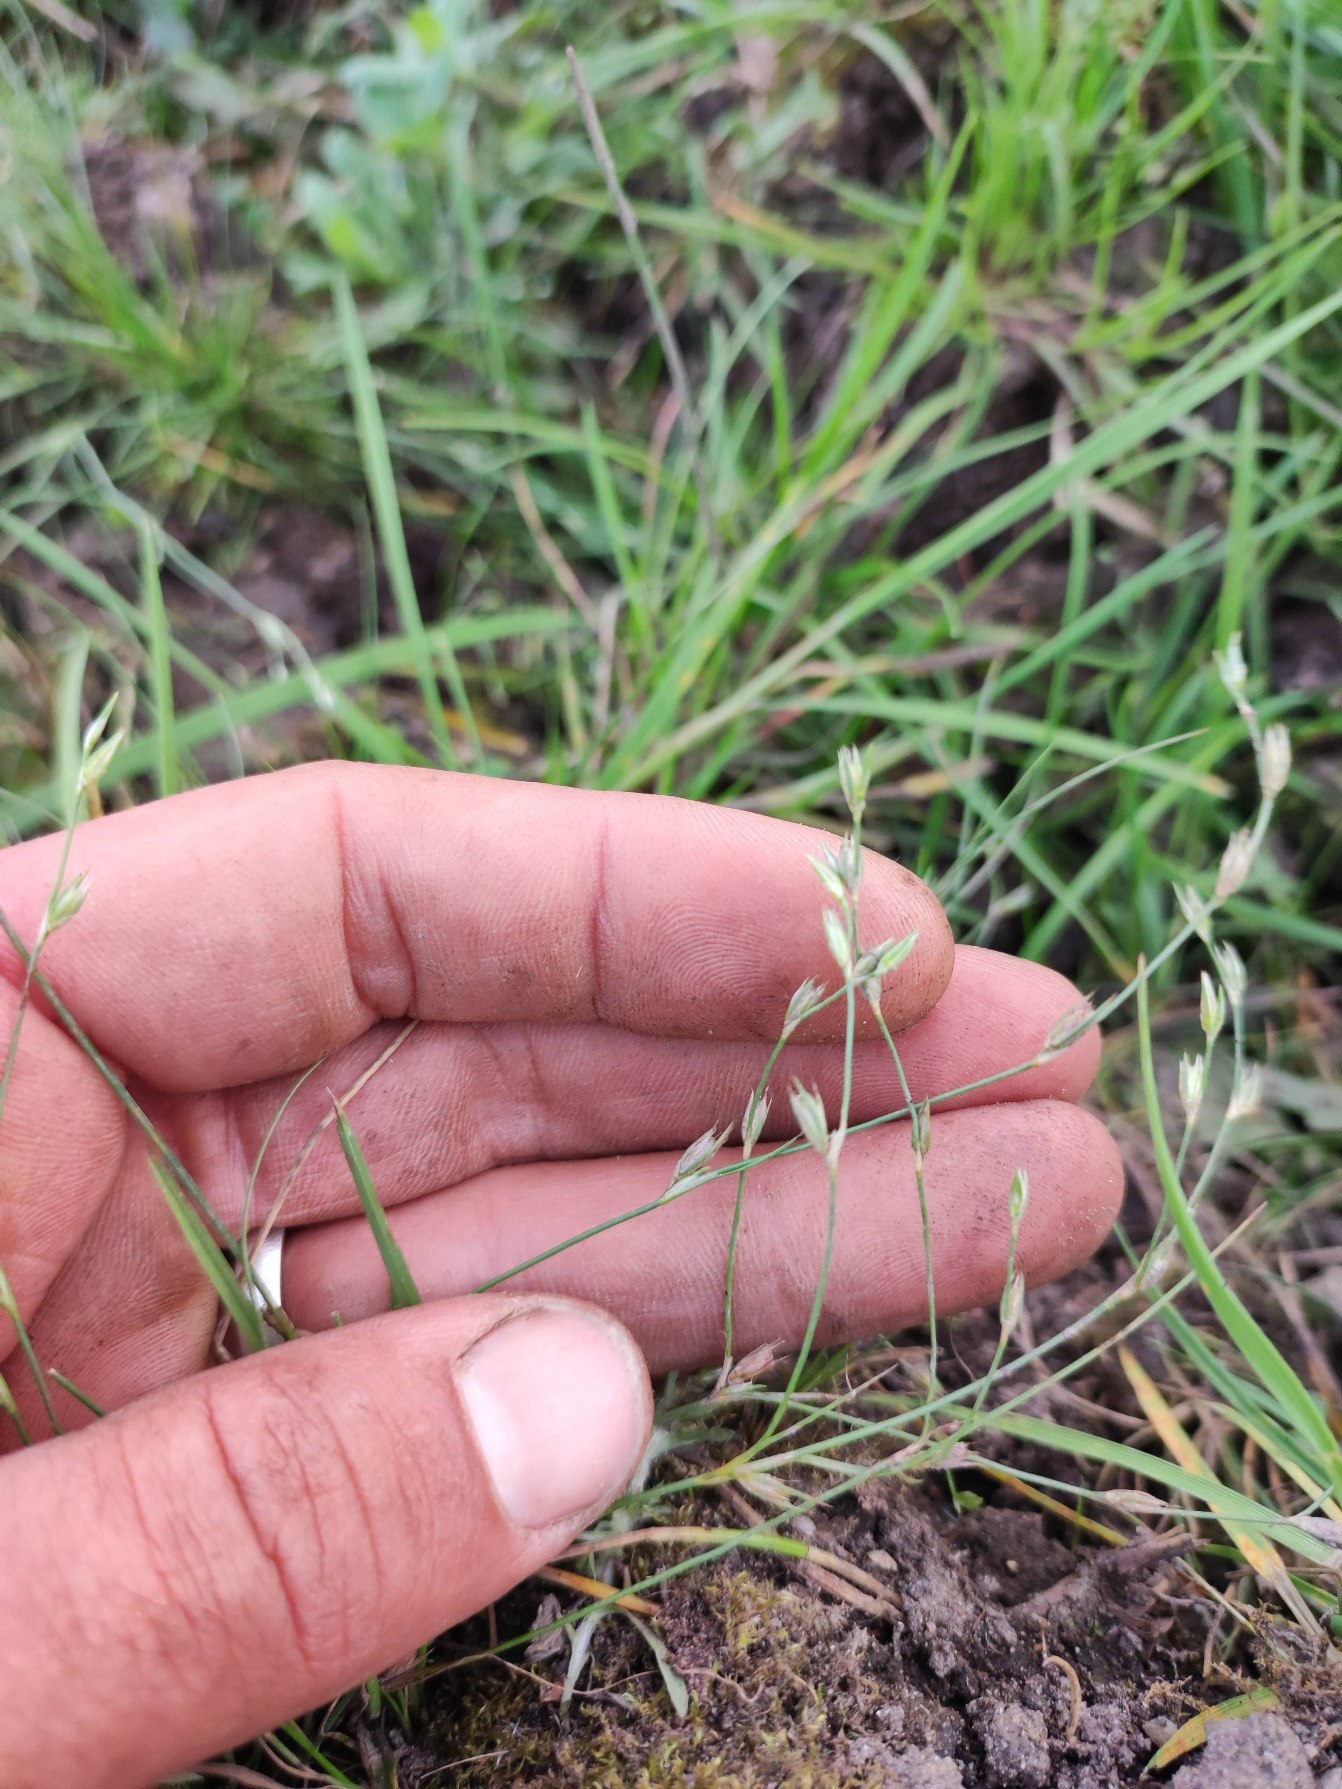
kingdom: Plantae
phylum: Tracheophyta
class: Liliopsida
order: Poales
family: Juncaceae
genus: Juncus
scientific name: Juncus bufonius
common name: Tudse-siv
